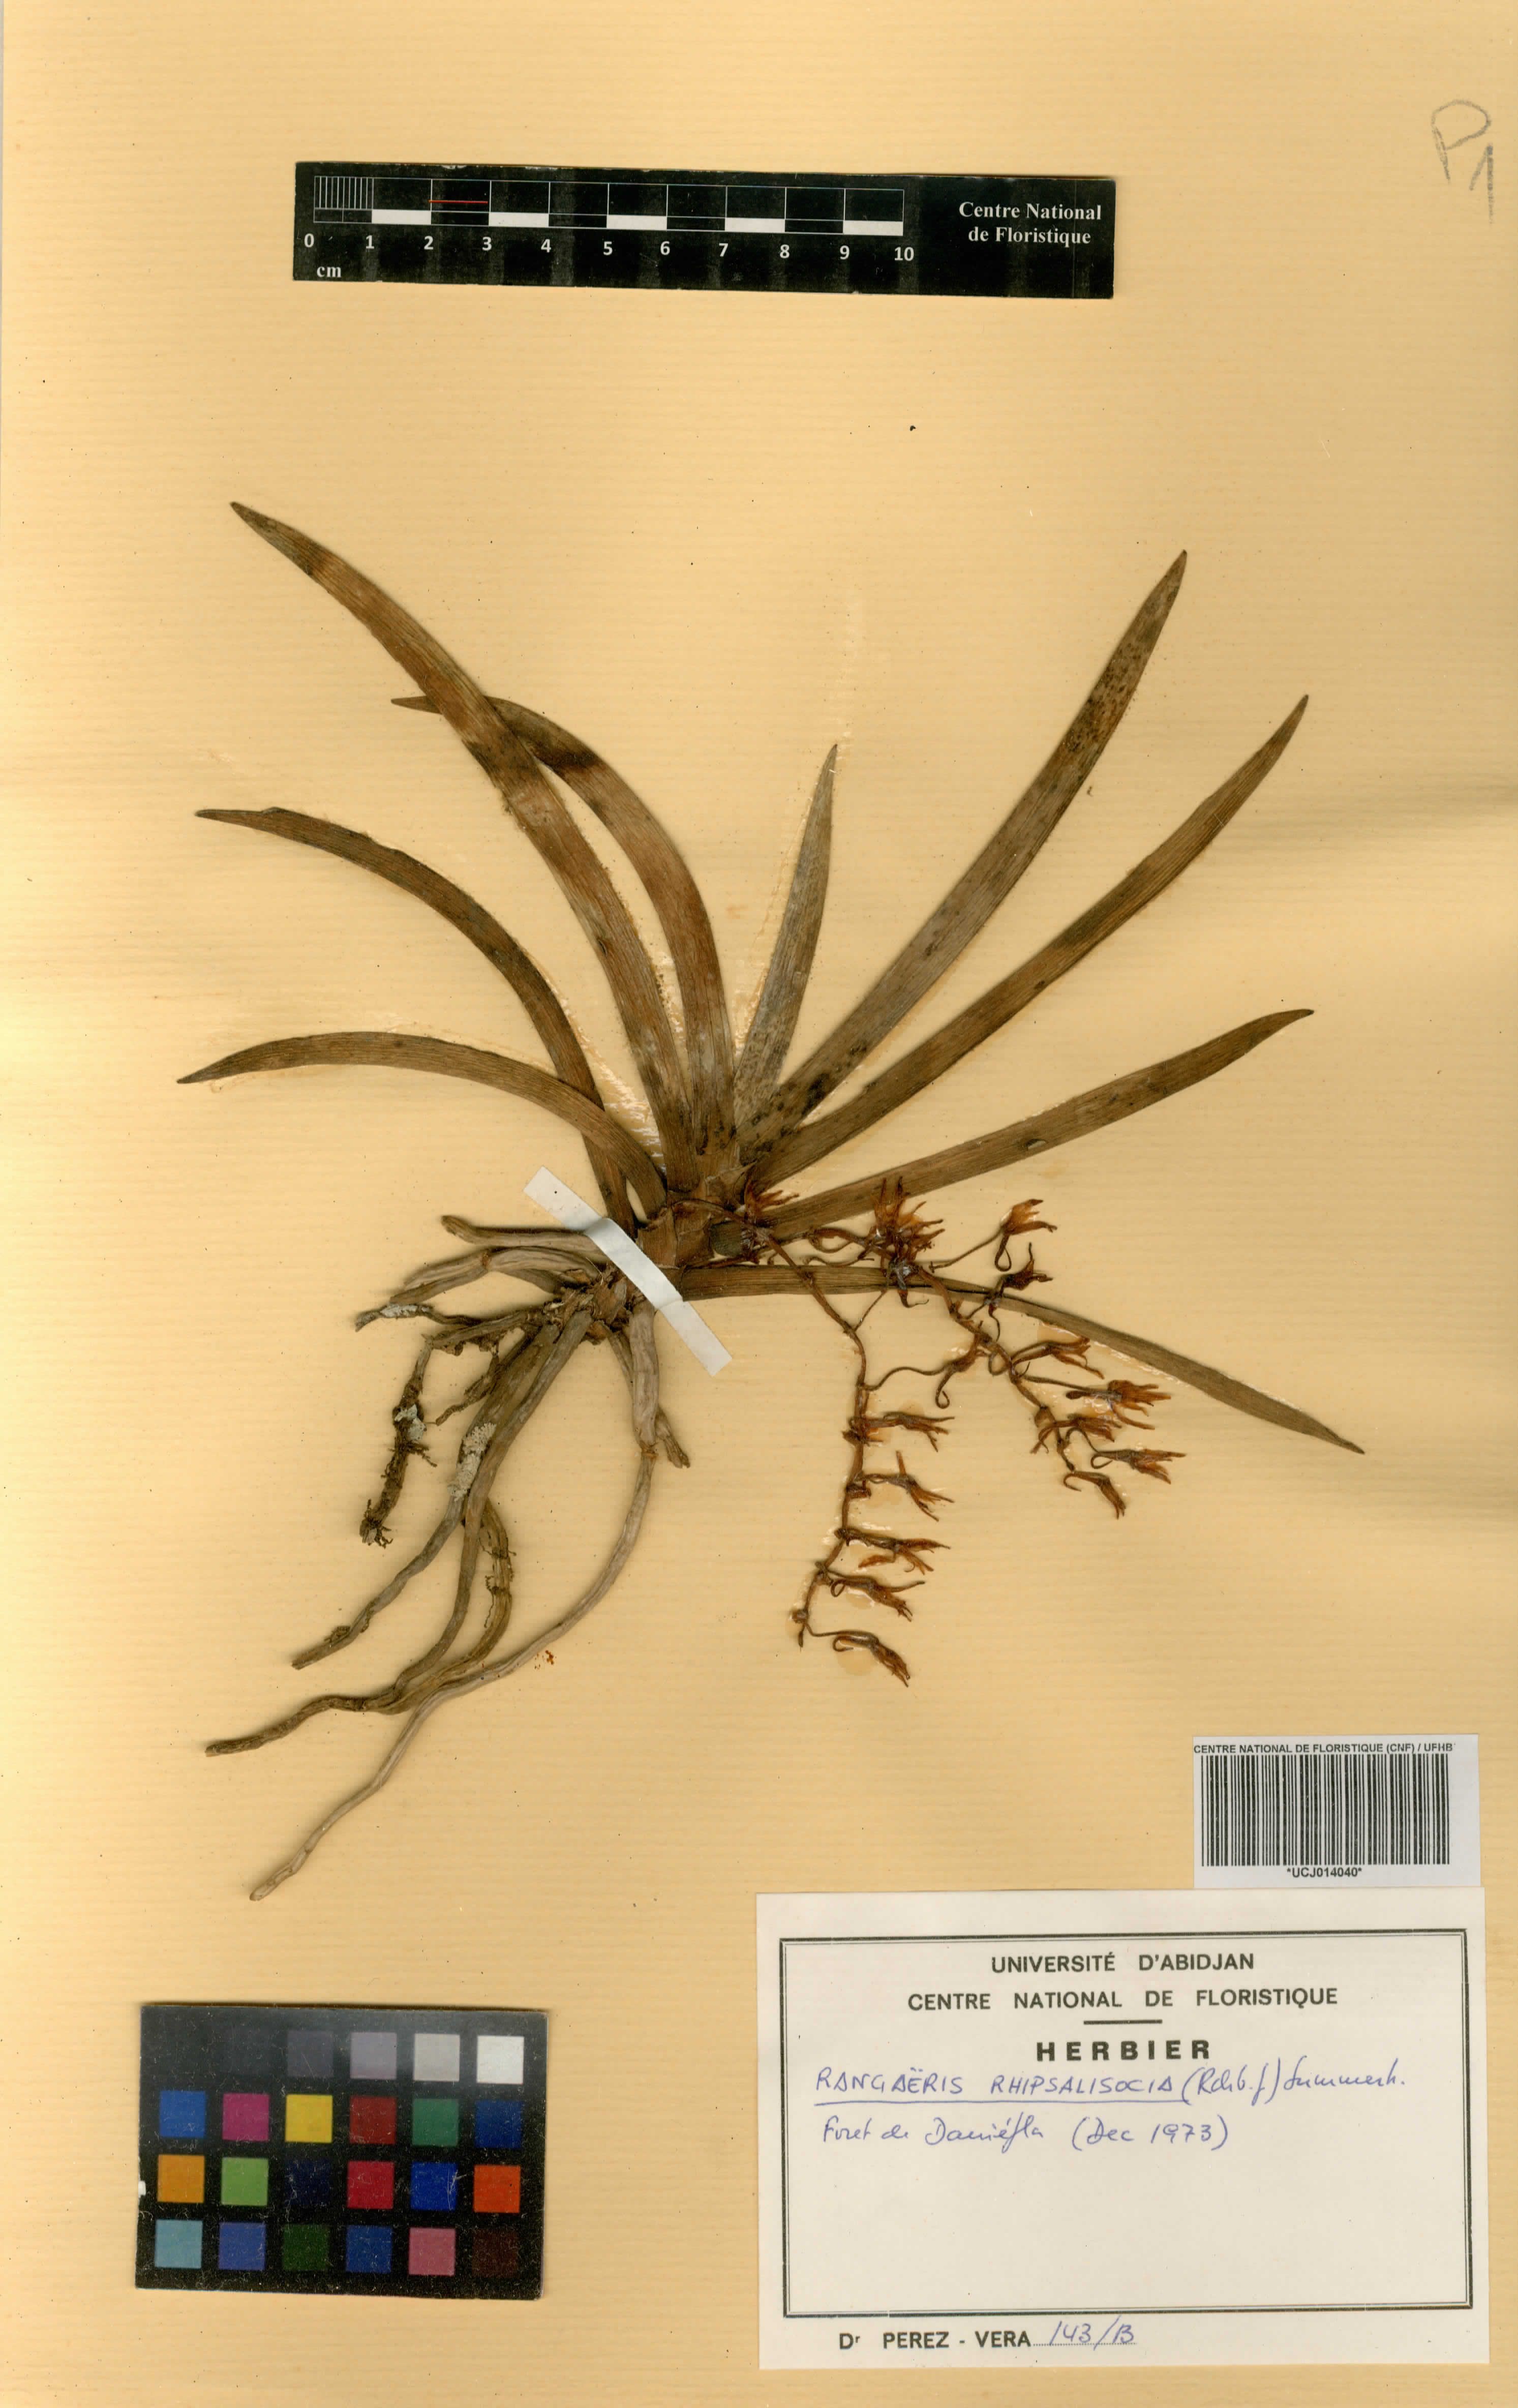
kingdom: Plantae
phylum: Tracheophyta
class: Liliopsida
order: Asparagales
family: Orchidaceae
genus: Podangis
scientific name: Podangis rhipsalisocia
